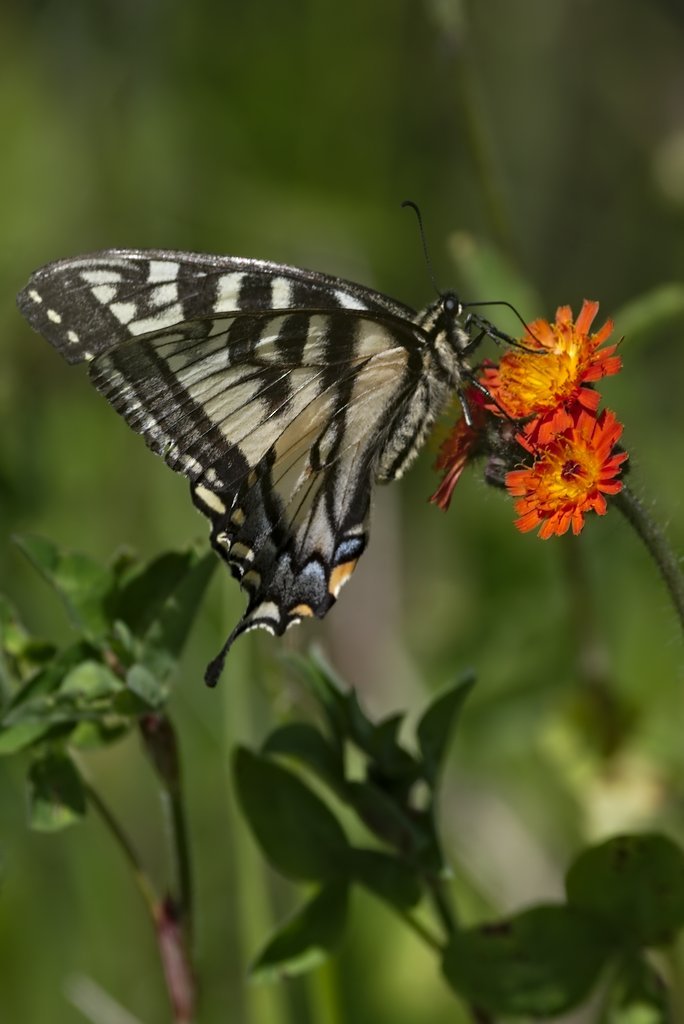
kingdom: Animalia
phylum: Arthropoda
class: Insecta
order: Lepidoptera
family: Papilionidae
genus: Pterourus
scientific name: Pterourus canadensis
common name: Canadian Tiger Swallowtail
